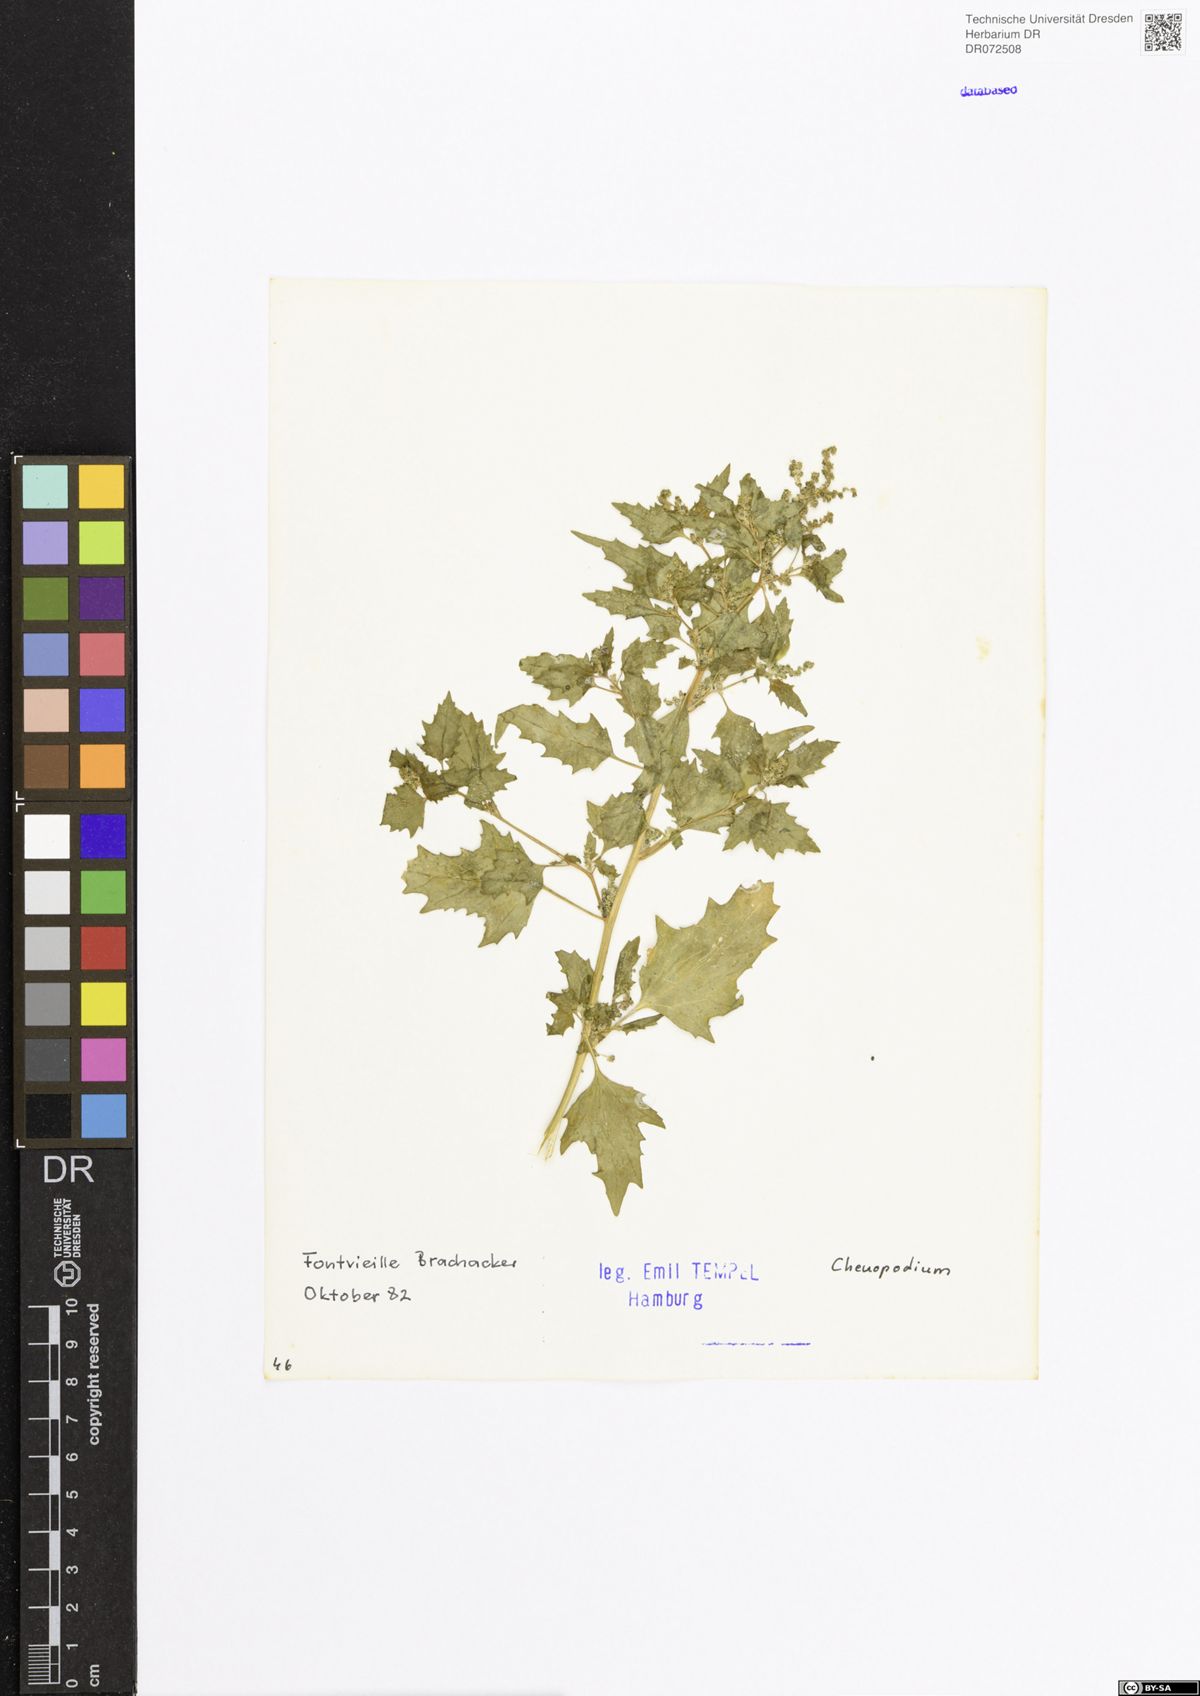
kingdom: Plantae
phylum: Tracheophyta
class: Magnoliopsida
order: Caryophyllales
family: Amaranthaceae
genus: Chenopodium
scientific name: Chenopodium
